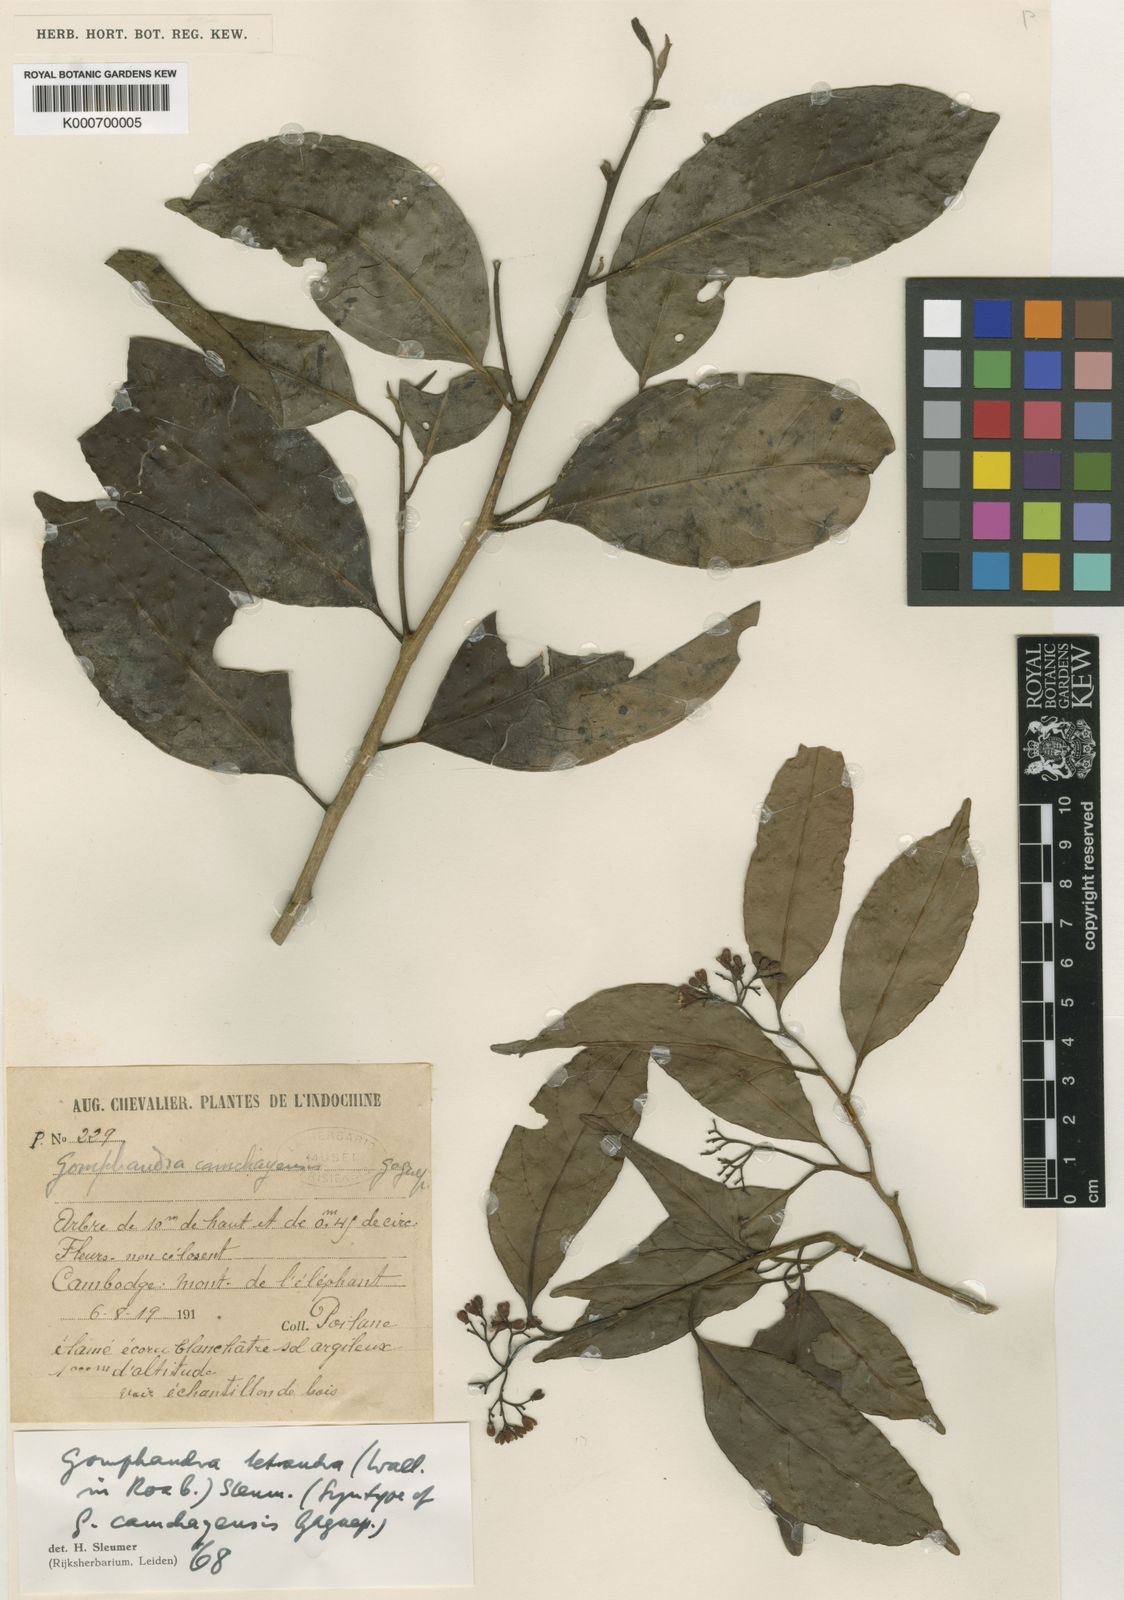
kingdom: Plantae
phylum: Tracheophyta
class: Magnoliopsida
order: Cardiopteridales
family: Stemonuraceae
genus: Gomphandra
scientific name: Gomphandra tetrandra
